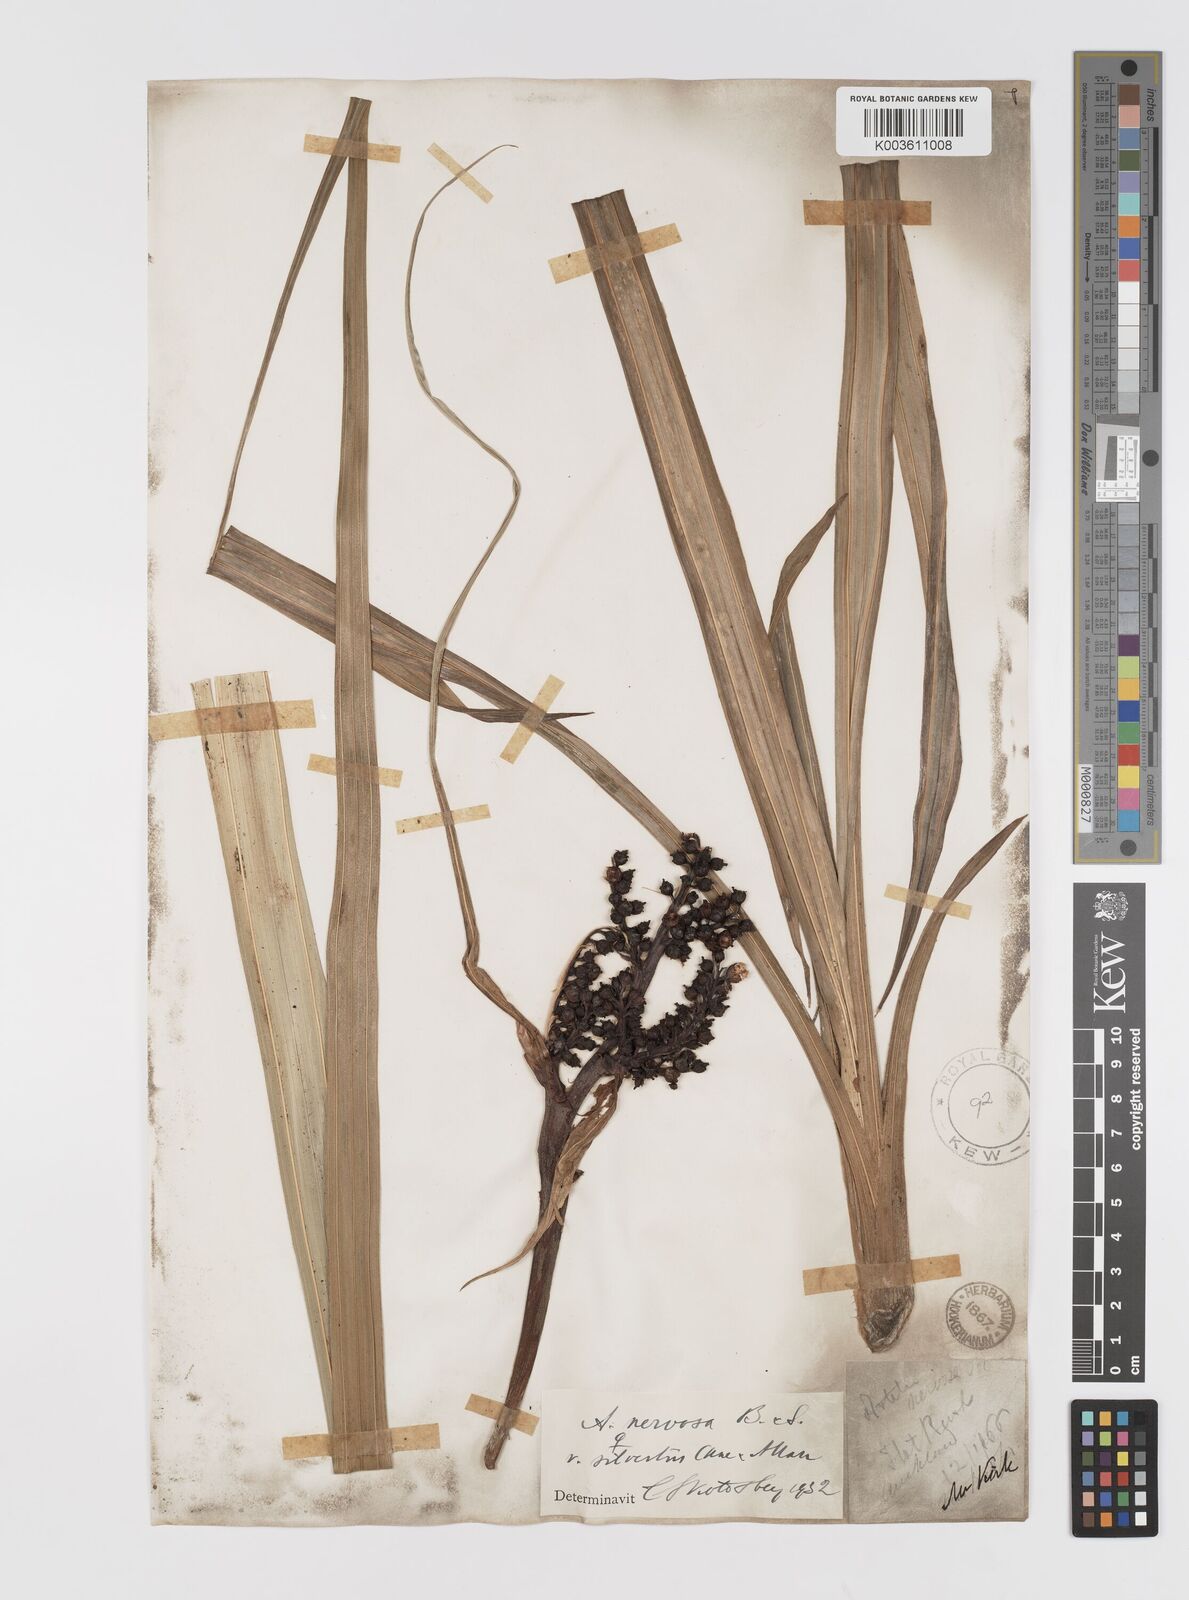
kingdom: Plantae
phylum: Tracheophyta
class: Liliopsida
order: Asparagales
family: Asteliaceae
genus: Astelia
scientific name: Astelia nervosa
